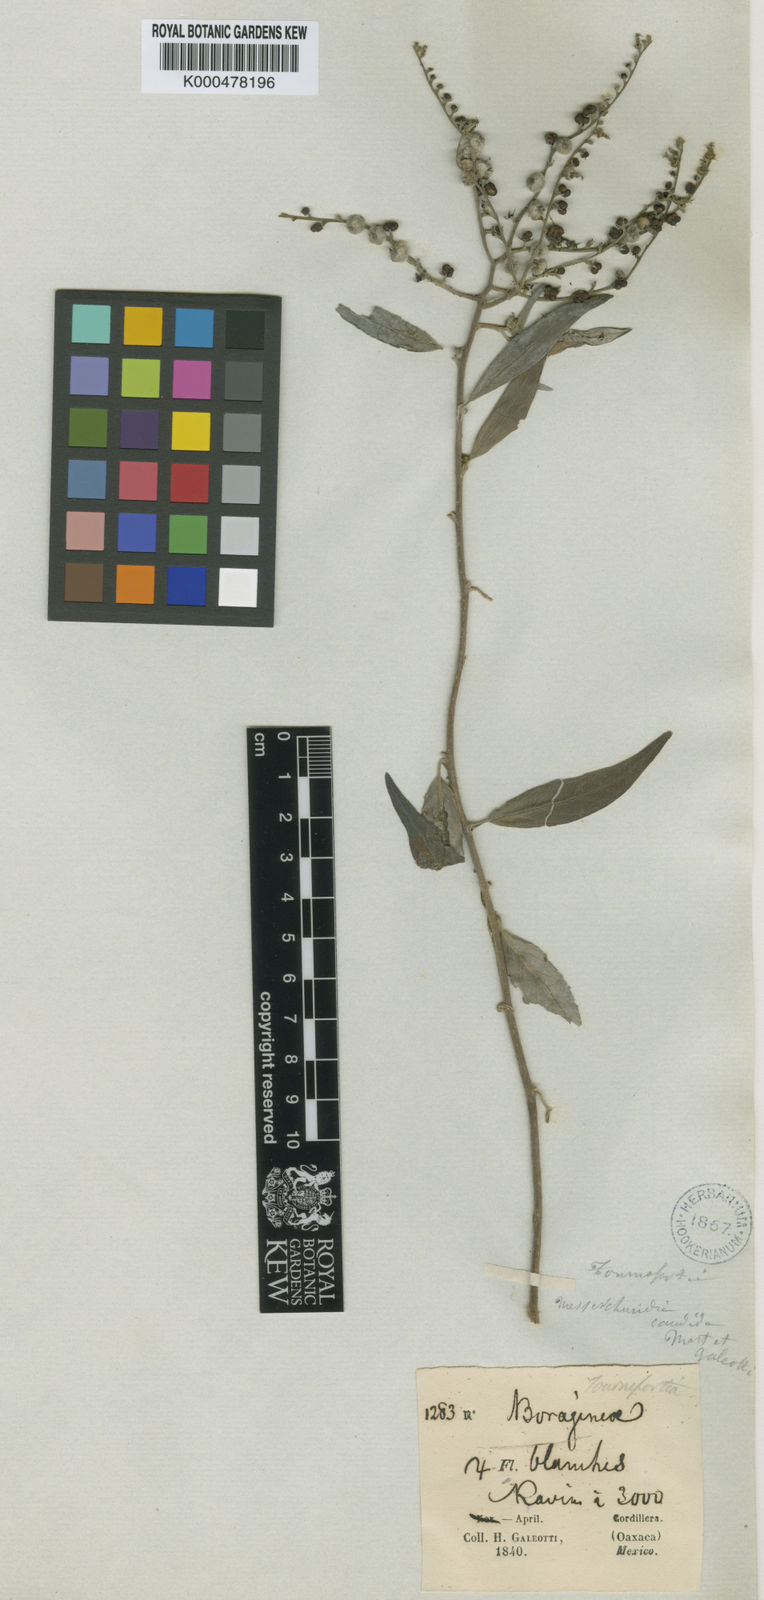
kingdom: Plantae
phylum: Tracheophyta
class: Magnoliopsida
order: Boraginales
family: Heliotropiaceae
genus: Myriopus
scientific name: Myriopus poliochros
